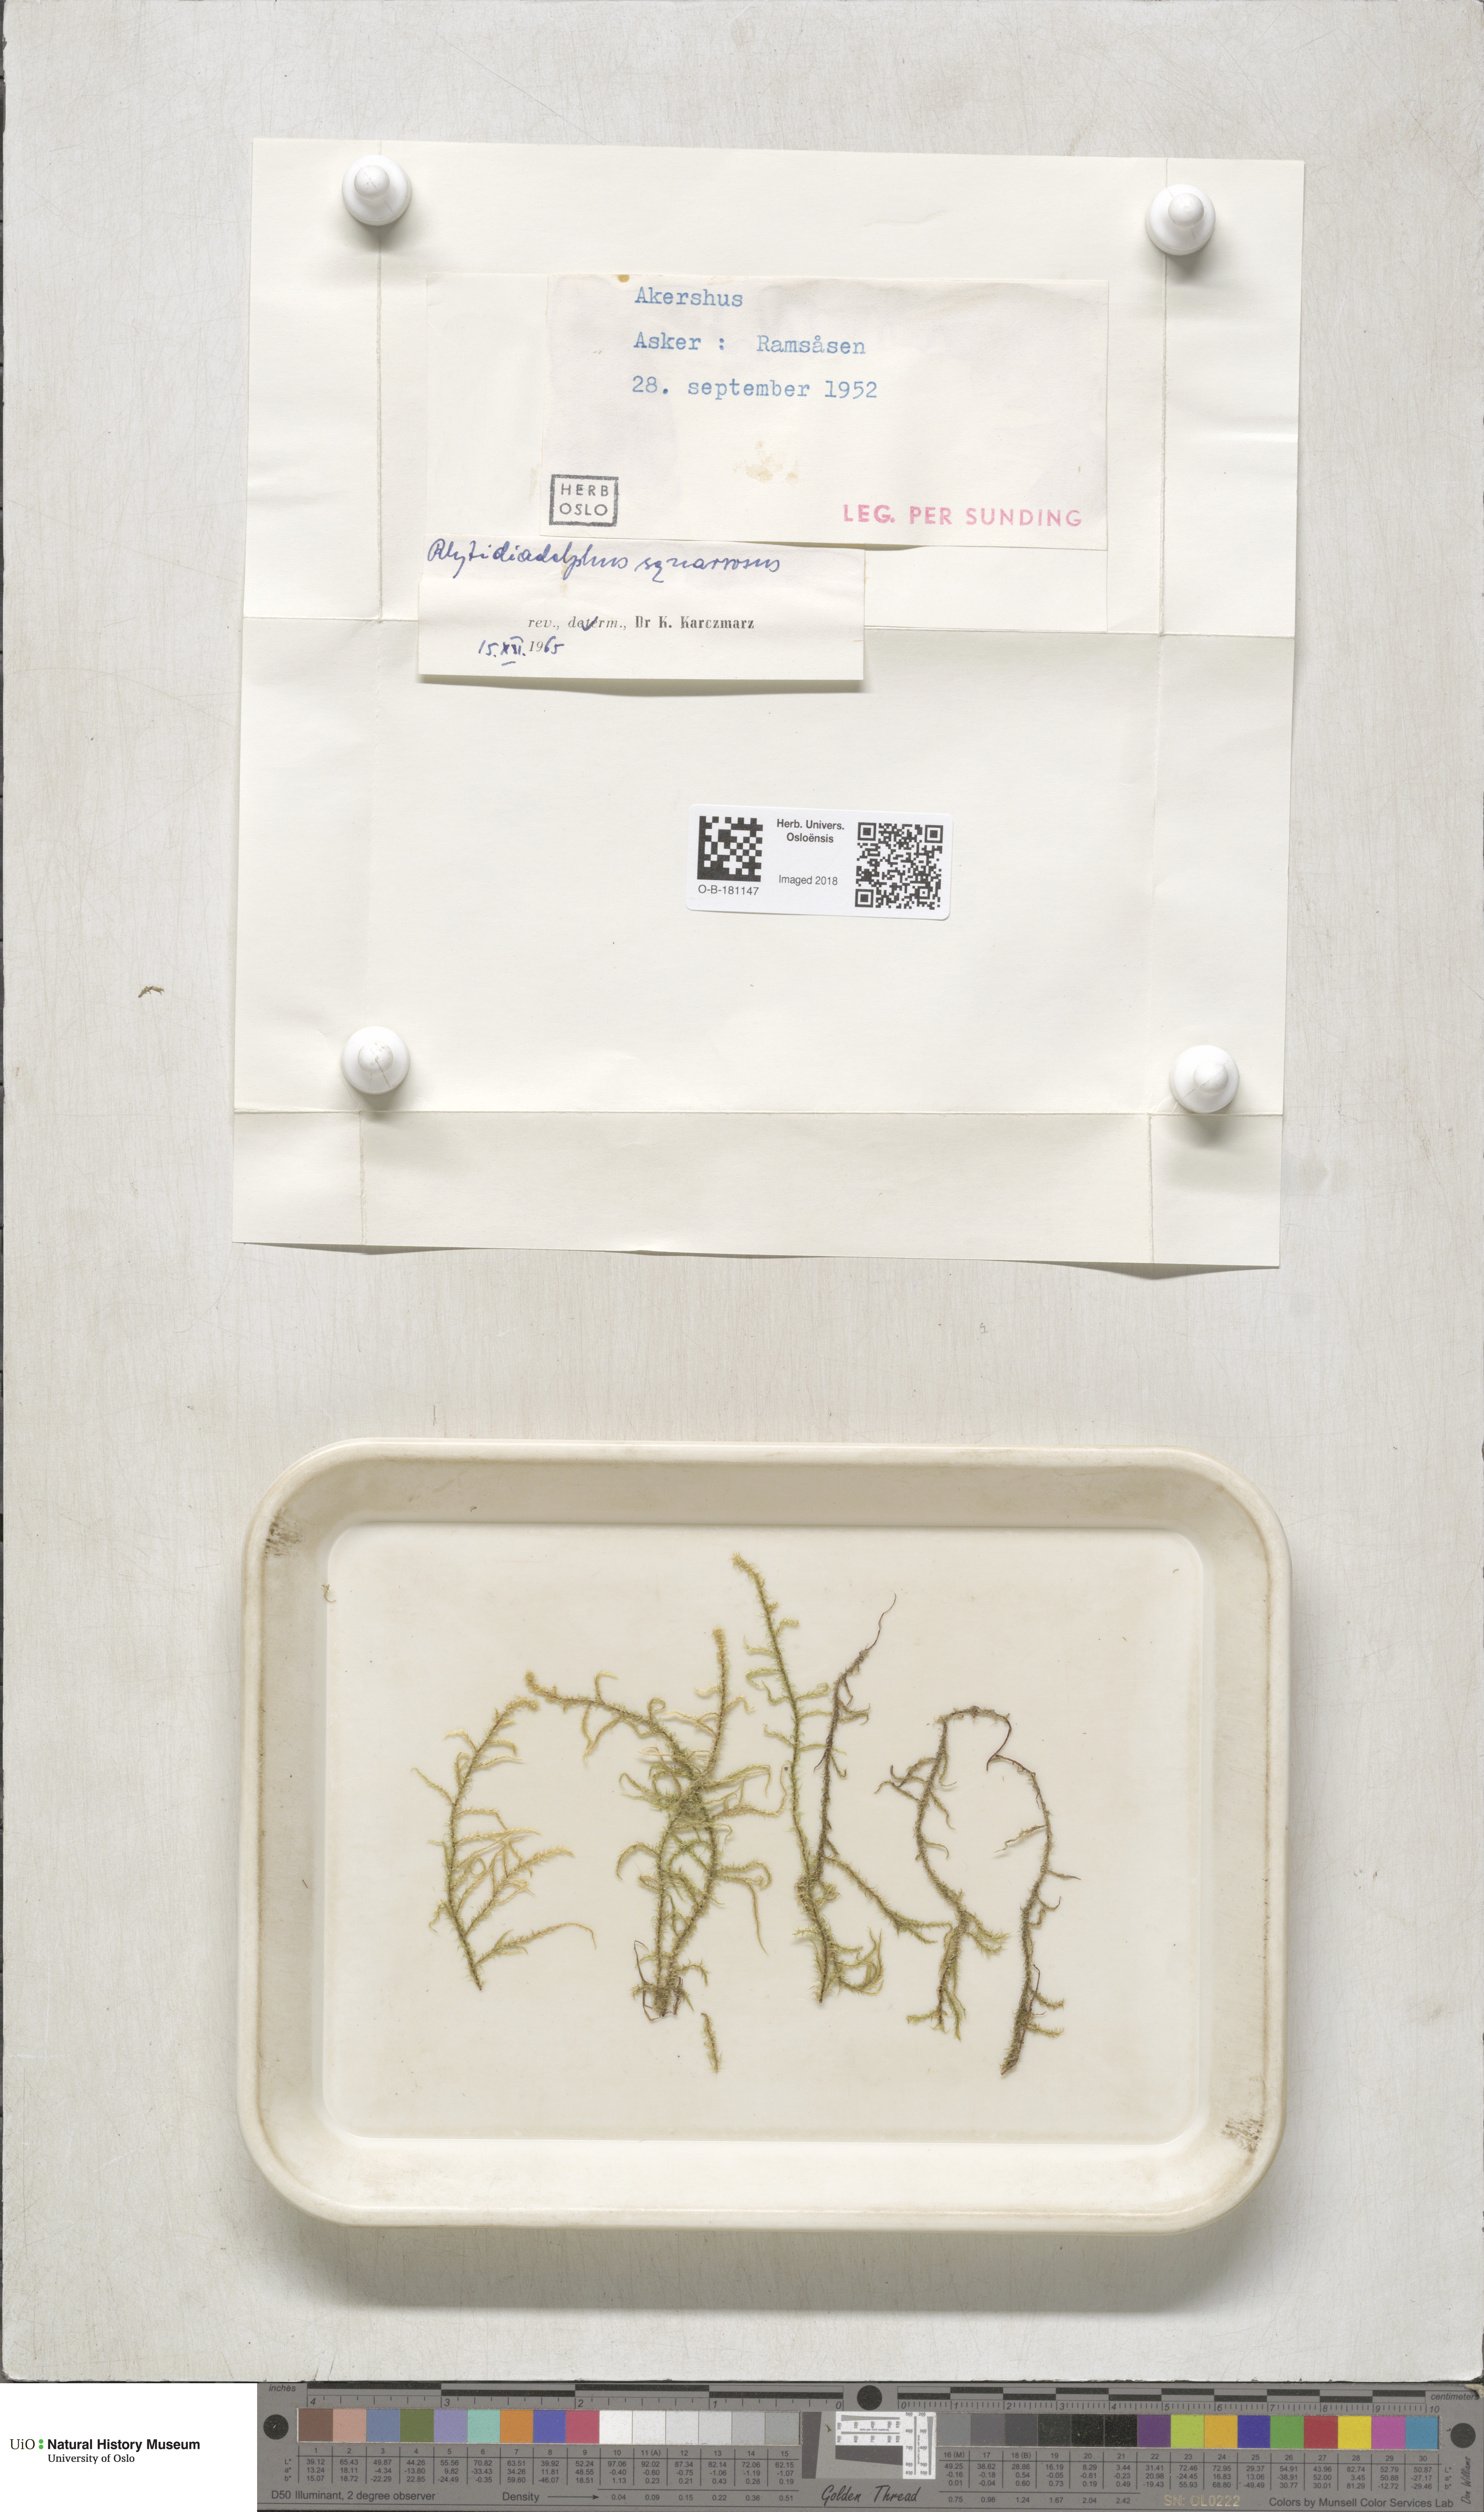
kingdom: Plantae
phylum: Bryophyta
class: Bryopsida
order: Hypnales
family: Hylocomiaceae
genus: Rhytidiadelphus
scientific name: Rhytidiadelphus squarrosus
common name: Springy turf-moss
